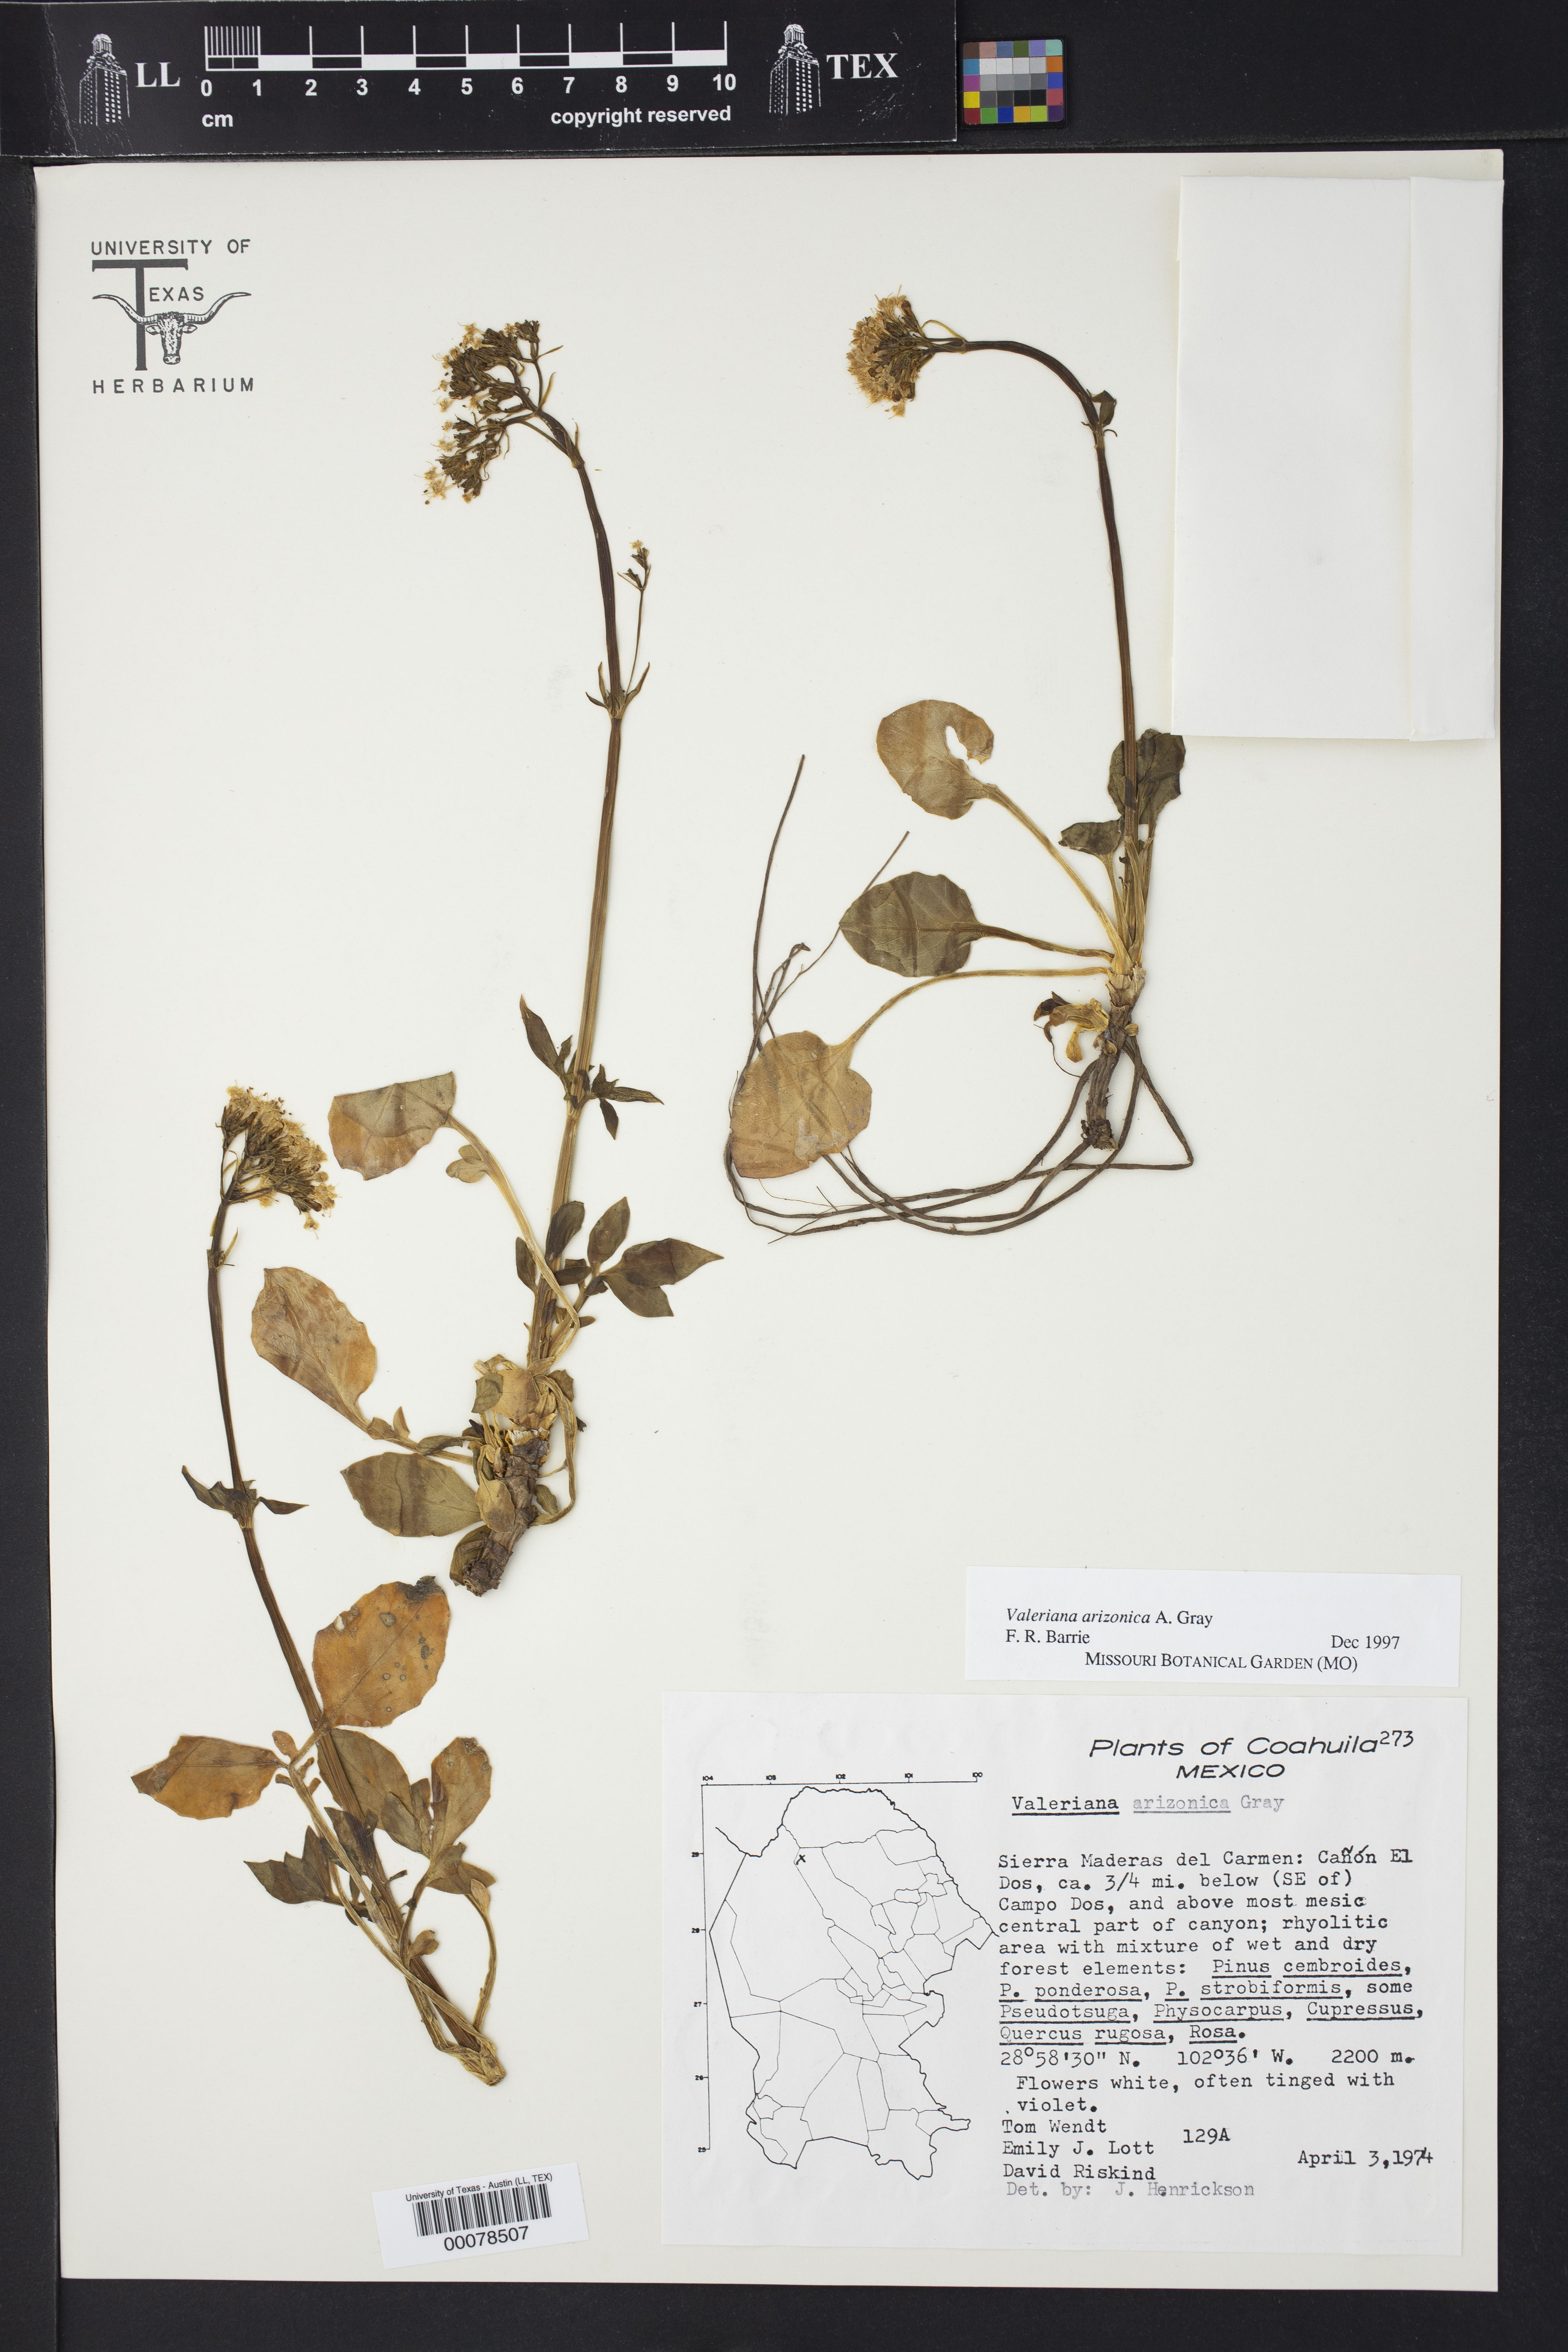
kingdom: Plantae
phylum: Tracheophyta
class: Magnoliopsida
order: Dipsacales
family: Caprifoliaceae
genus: Valeriana
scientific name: Valeriana arizonica
